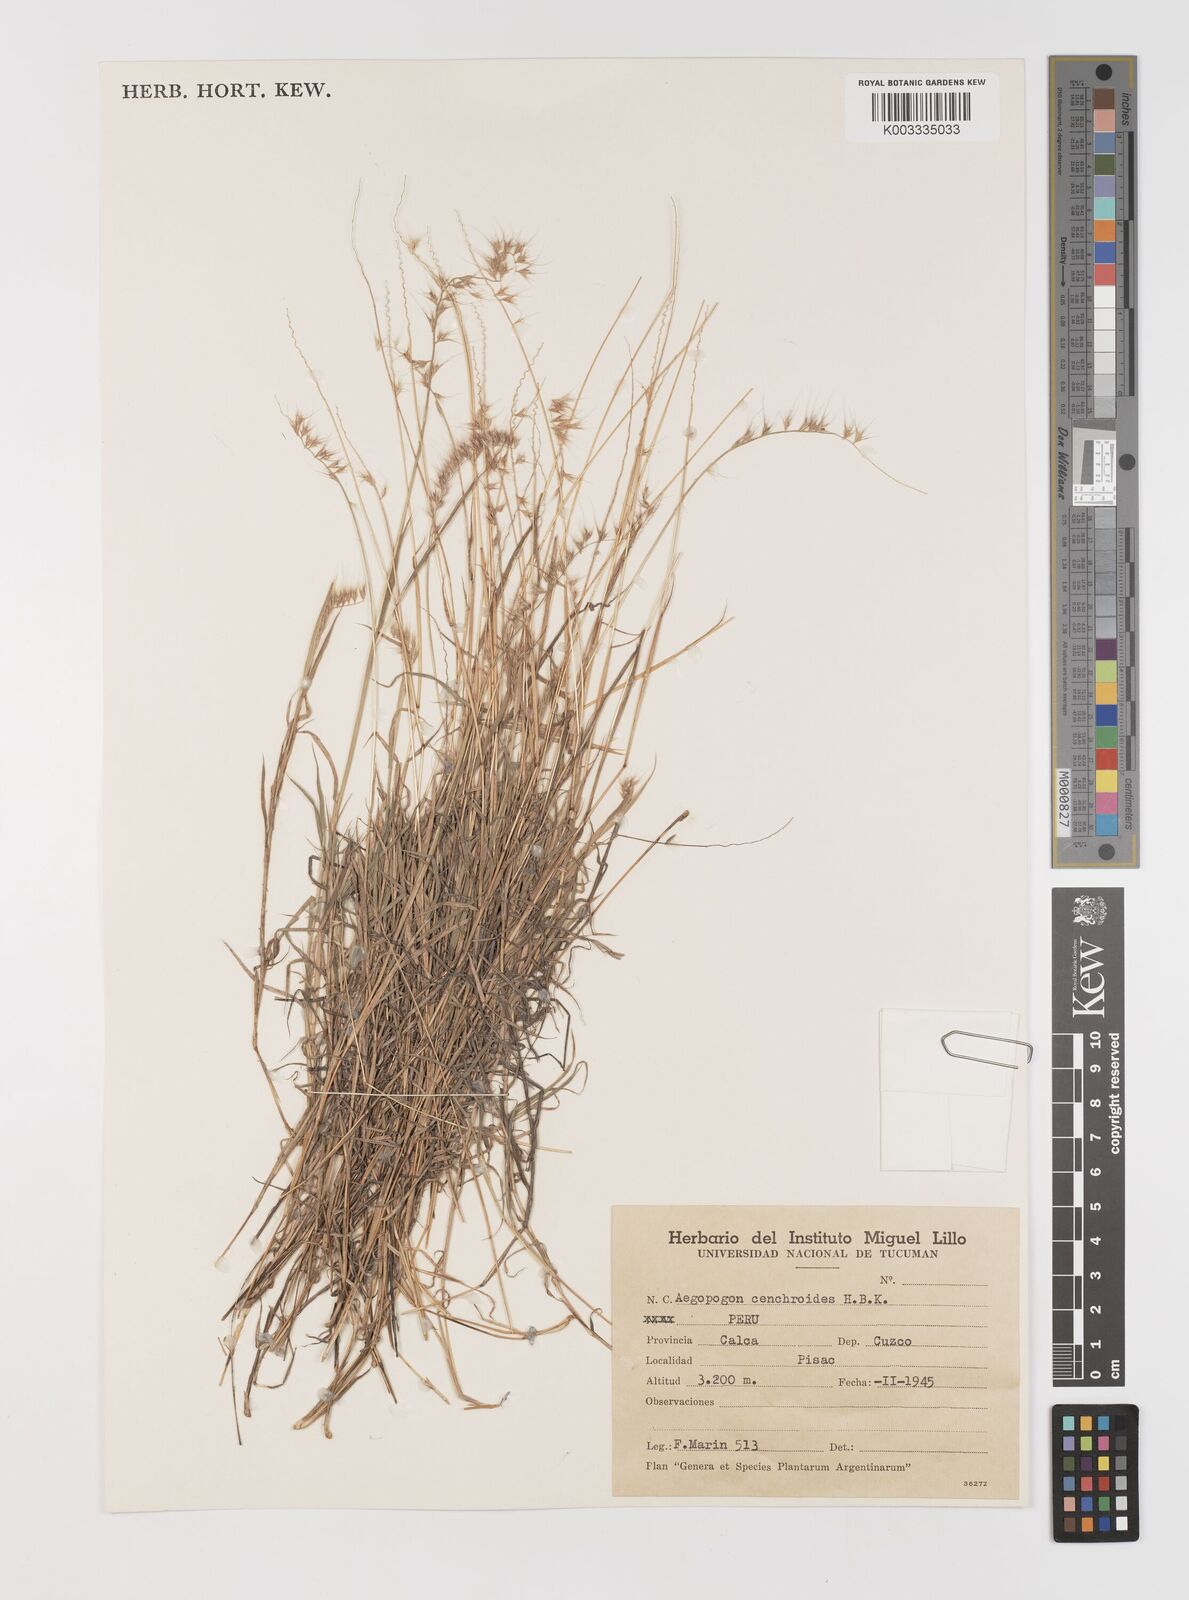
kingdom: Plantae
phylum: Tracheophyta
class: Liliopsida
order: Poales
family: Poaceae
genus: Muhlenbergia
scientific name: Muhlenbergia cenchroides
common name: Relaxgrass
